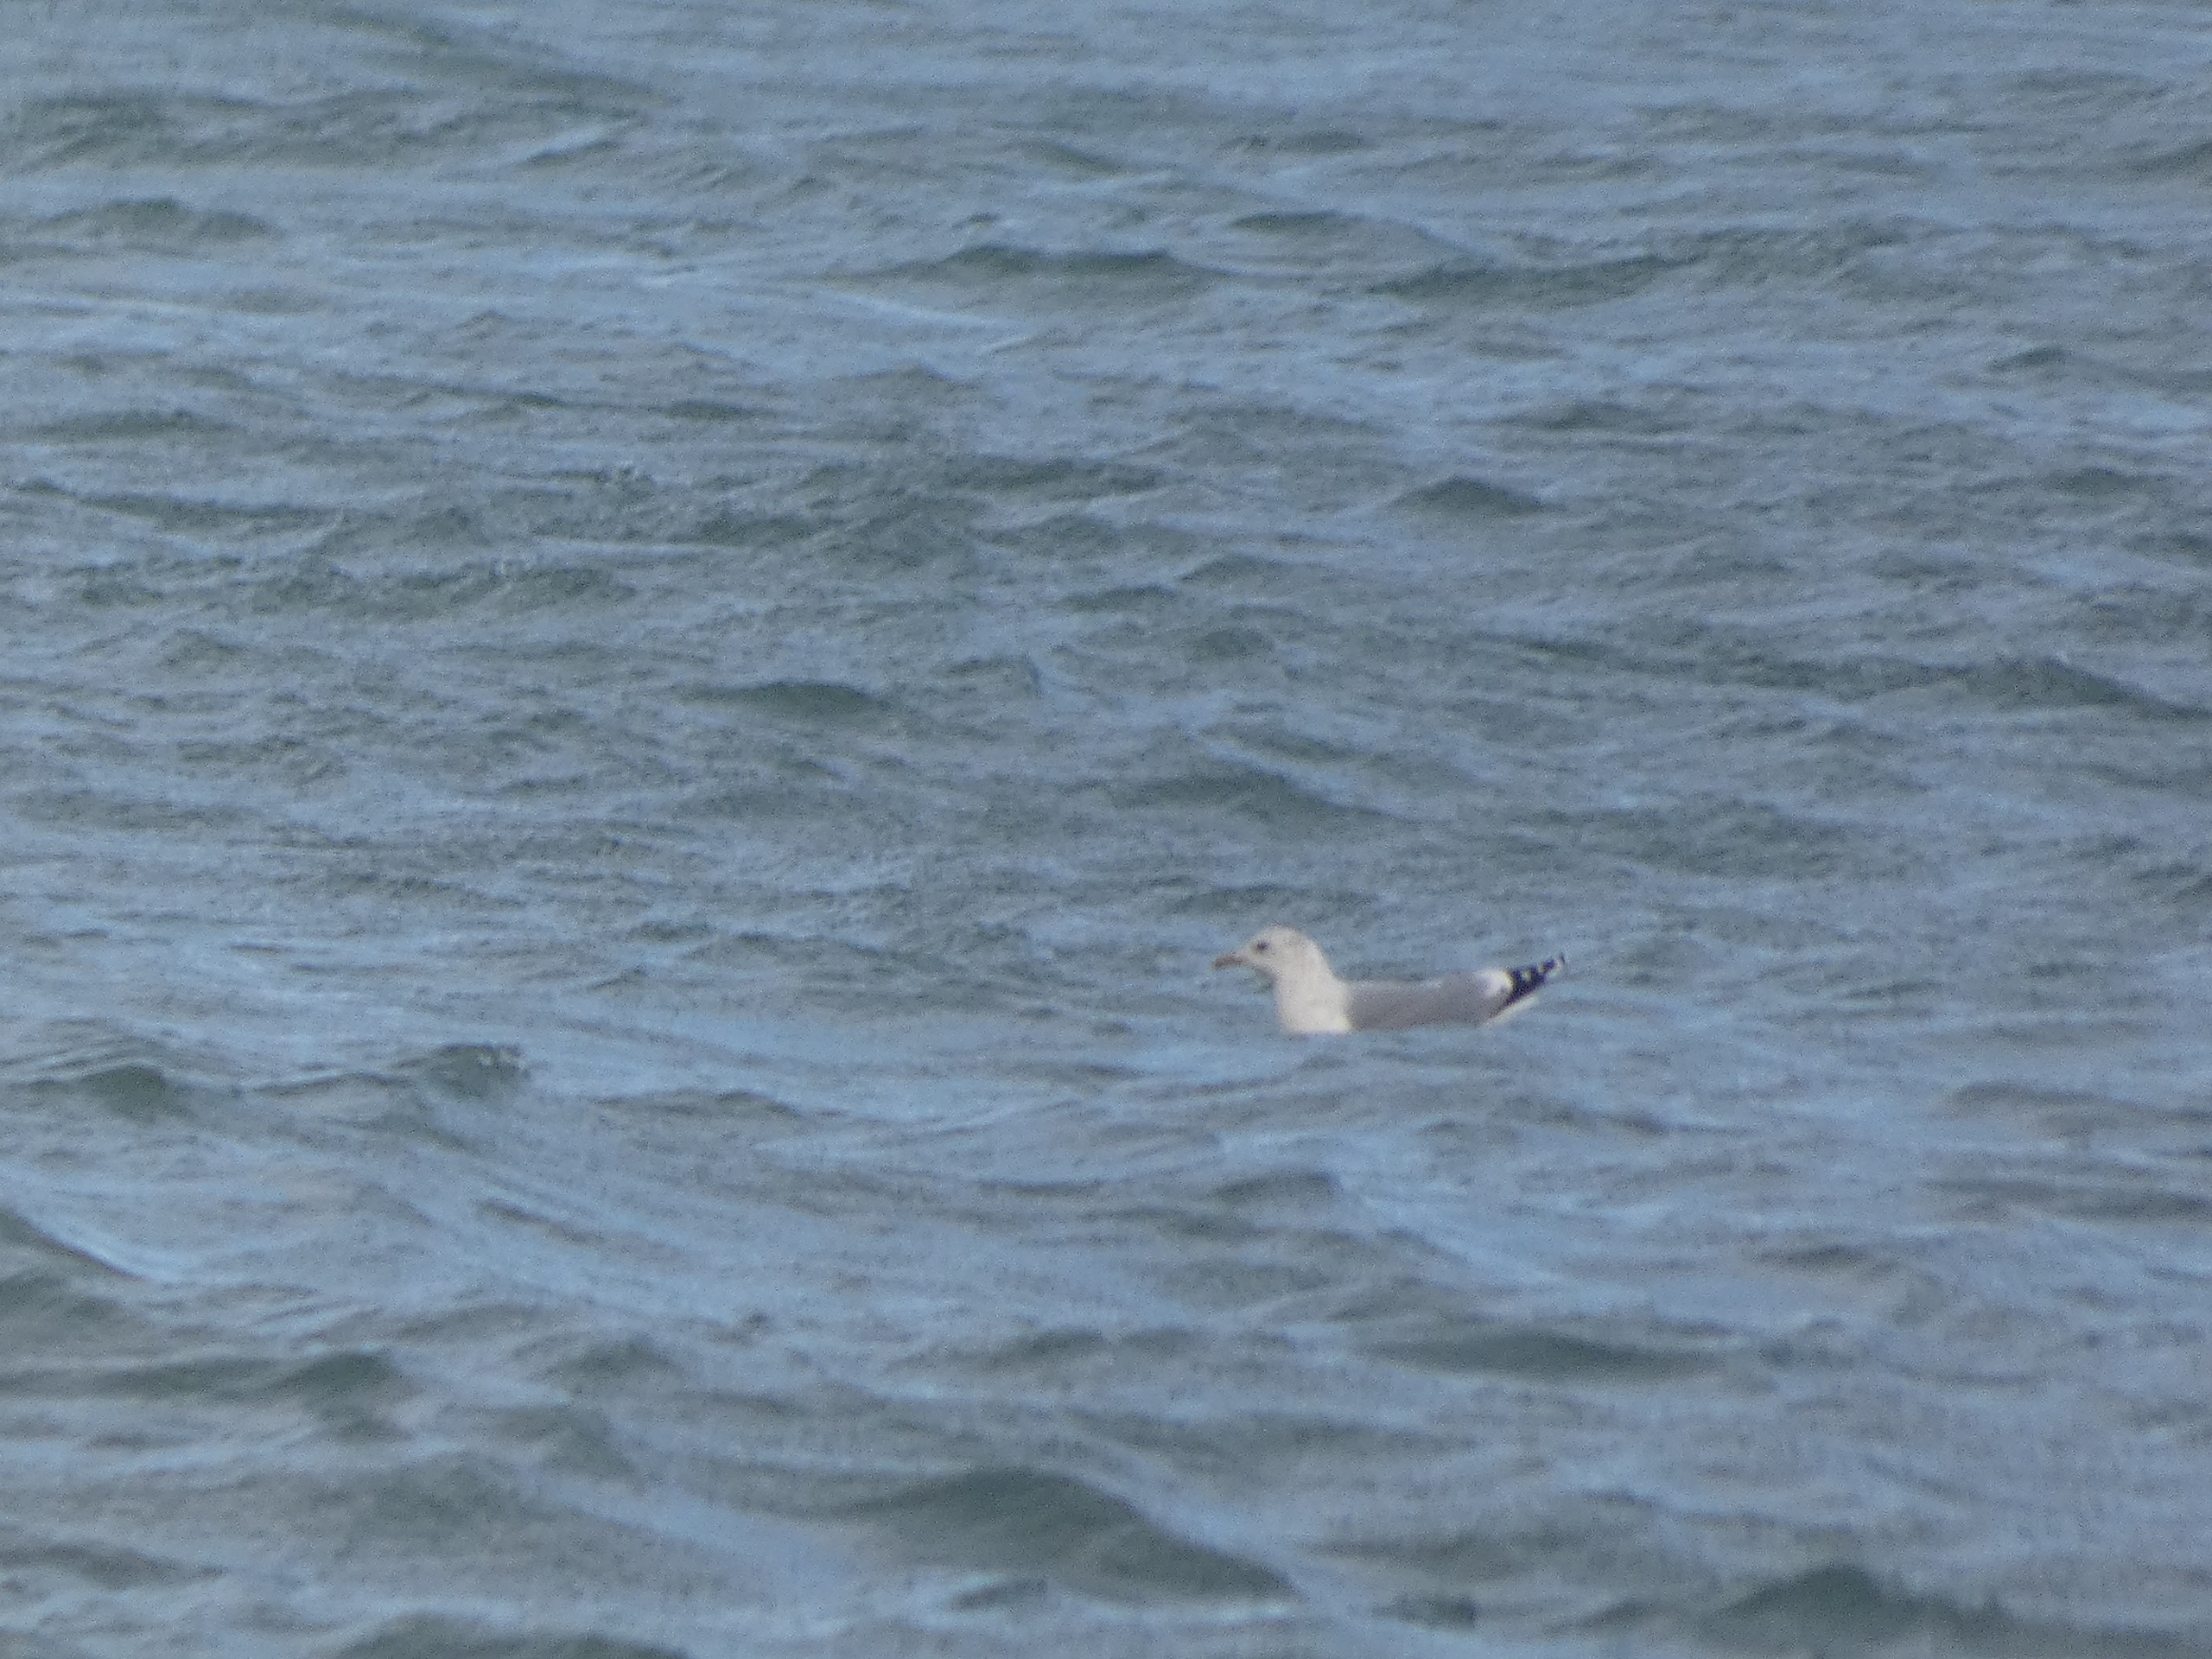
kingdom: Animalia
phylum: Chordata
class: Aves
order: Charadriiformes
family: Laridae
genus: Larus
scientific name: Larus canus
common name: Stormmåge
